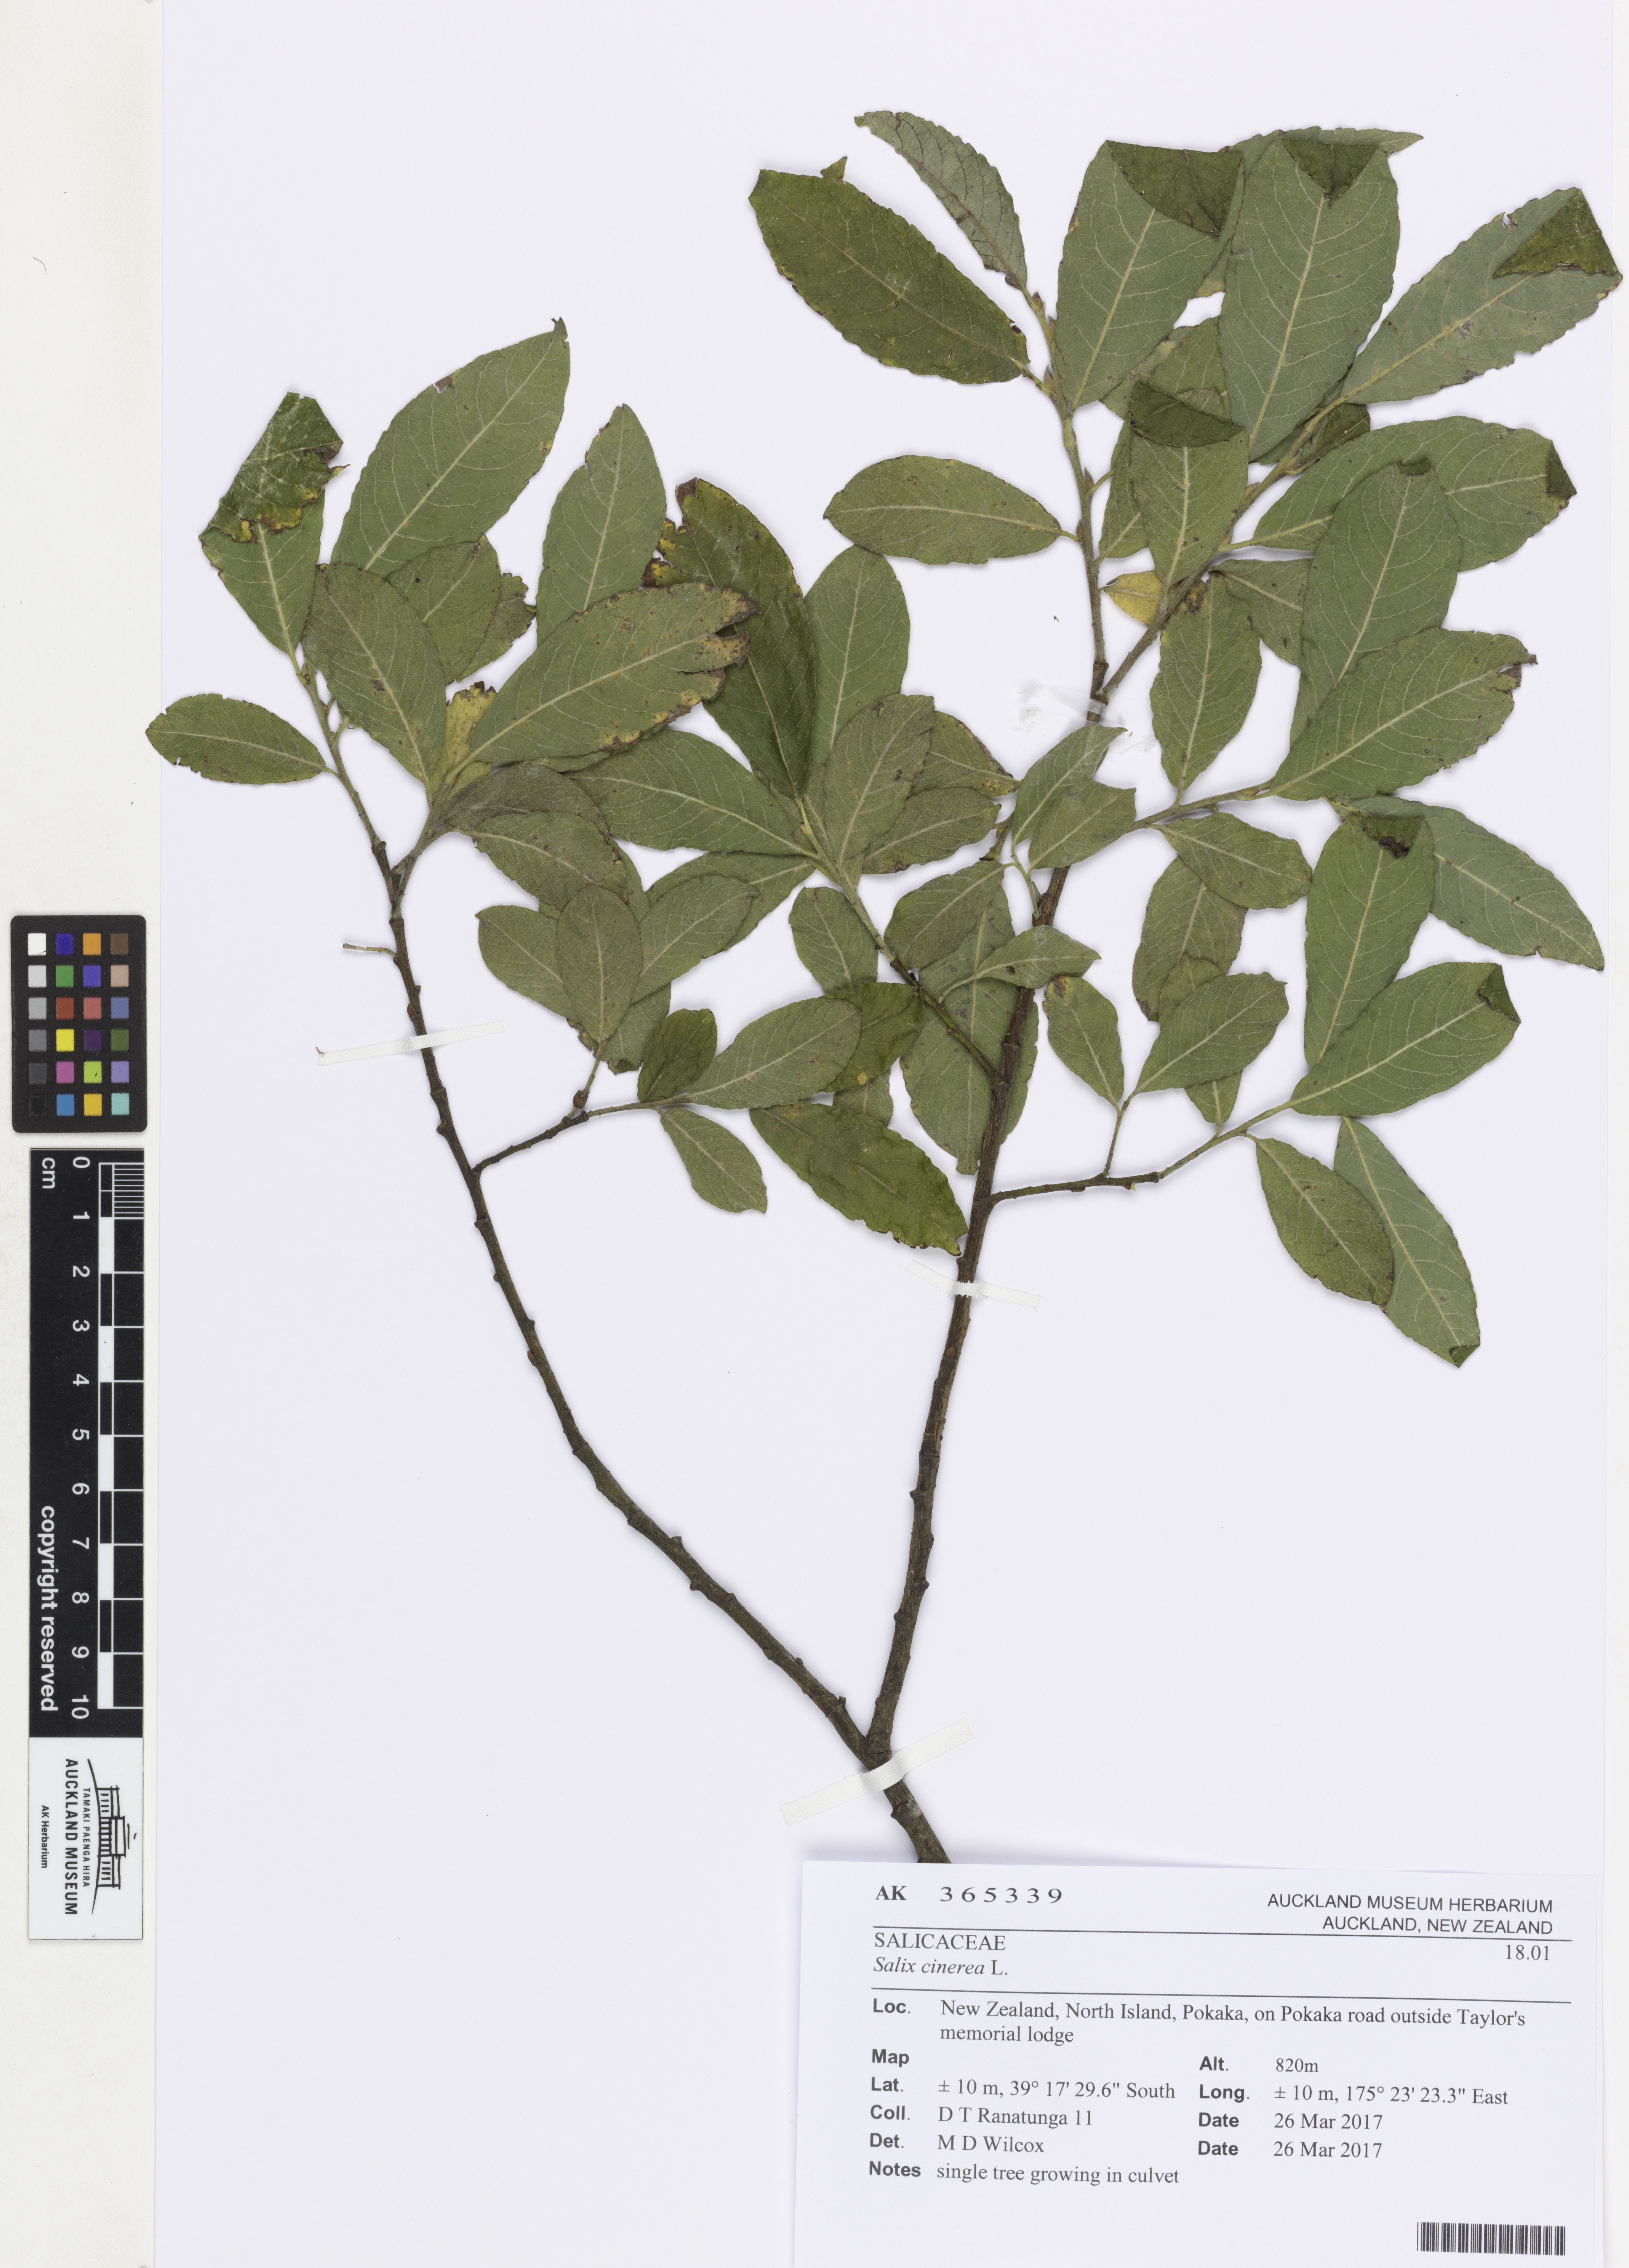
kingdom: Plantae
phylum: Tracheophyta
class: Magnoliopsida
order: Malpighiales
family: Salicaceae
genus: Salix
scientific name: Salix cinerea
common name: Common sallow
